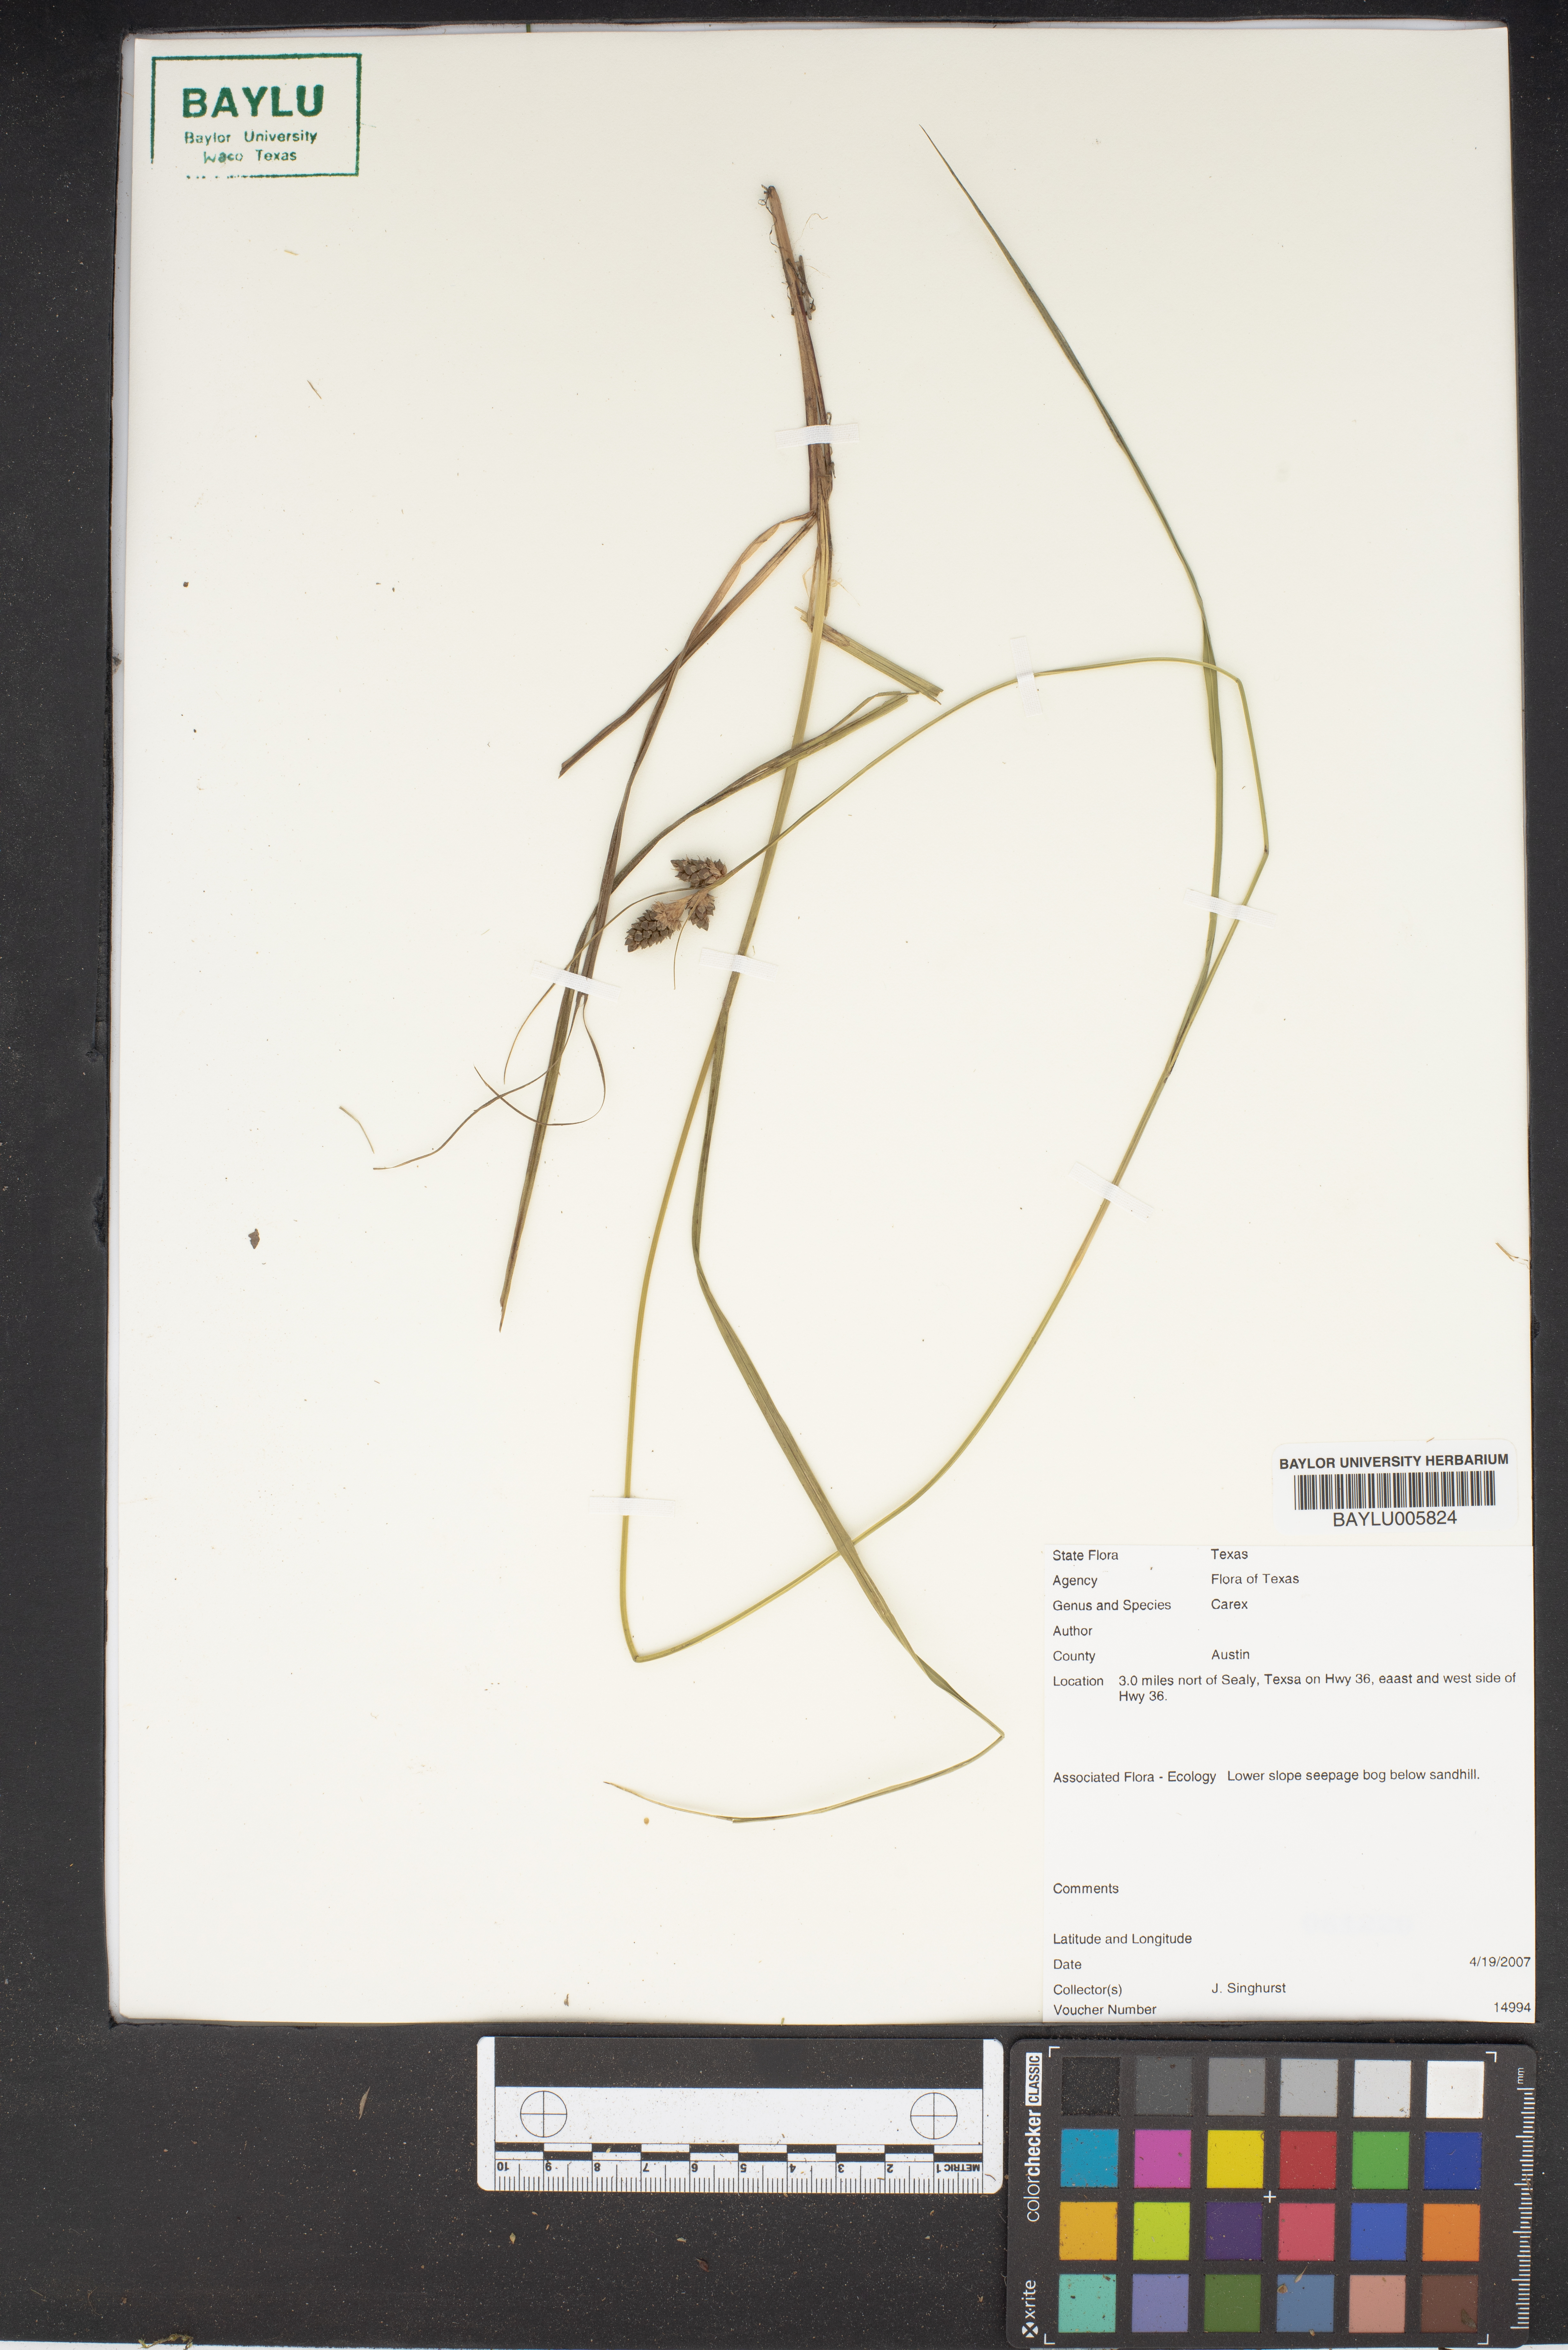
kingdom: Plantae
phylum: Tracheophyta
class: Liliopsida
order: Poales
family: Cyperaceae
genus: Carex
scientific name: Carex
